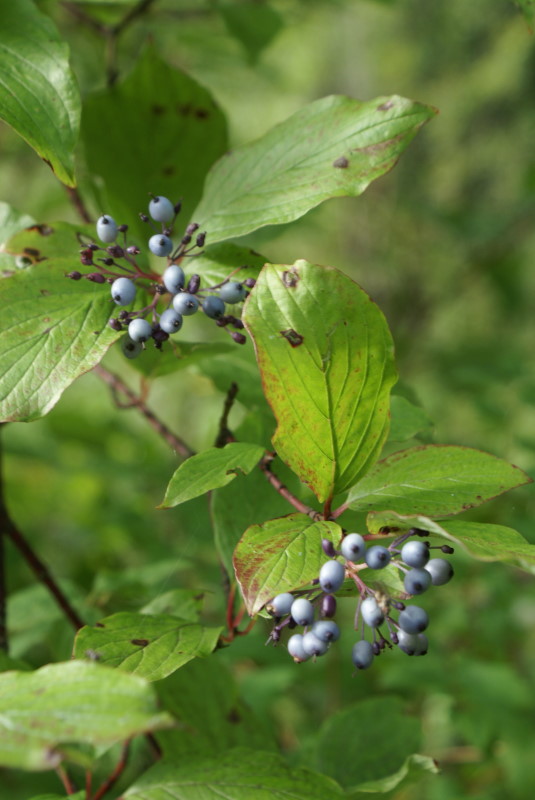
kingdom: Plantae
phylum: Tracheophyta
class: Magnoliopsida
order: Cornales
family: Cornaceae
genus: Cornus
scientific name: Cornus alba
